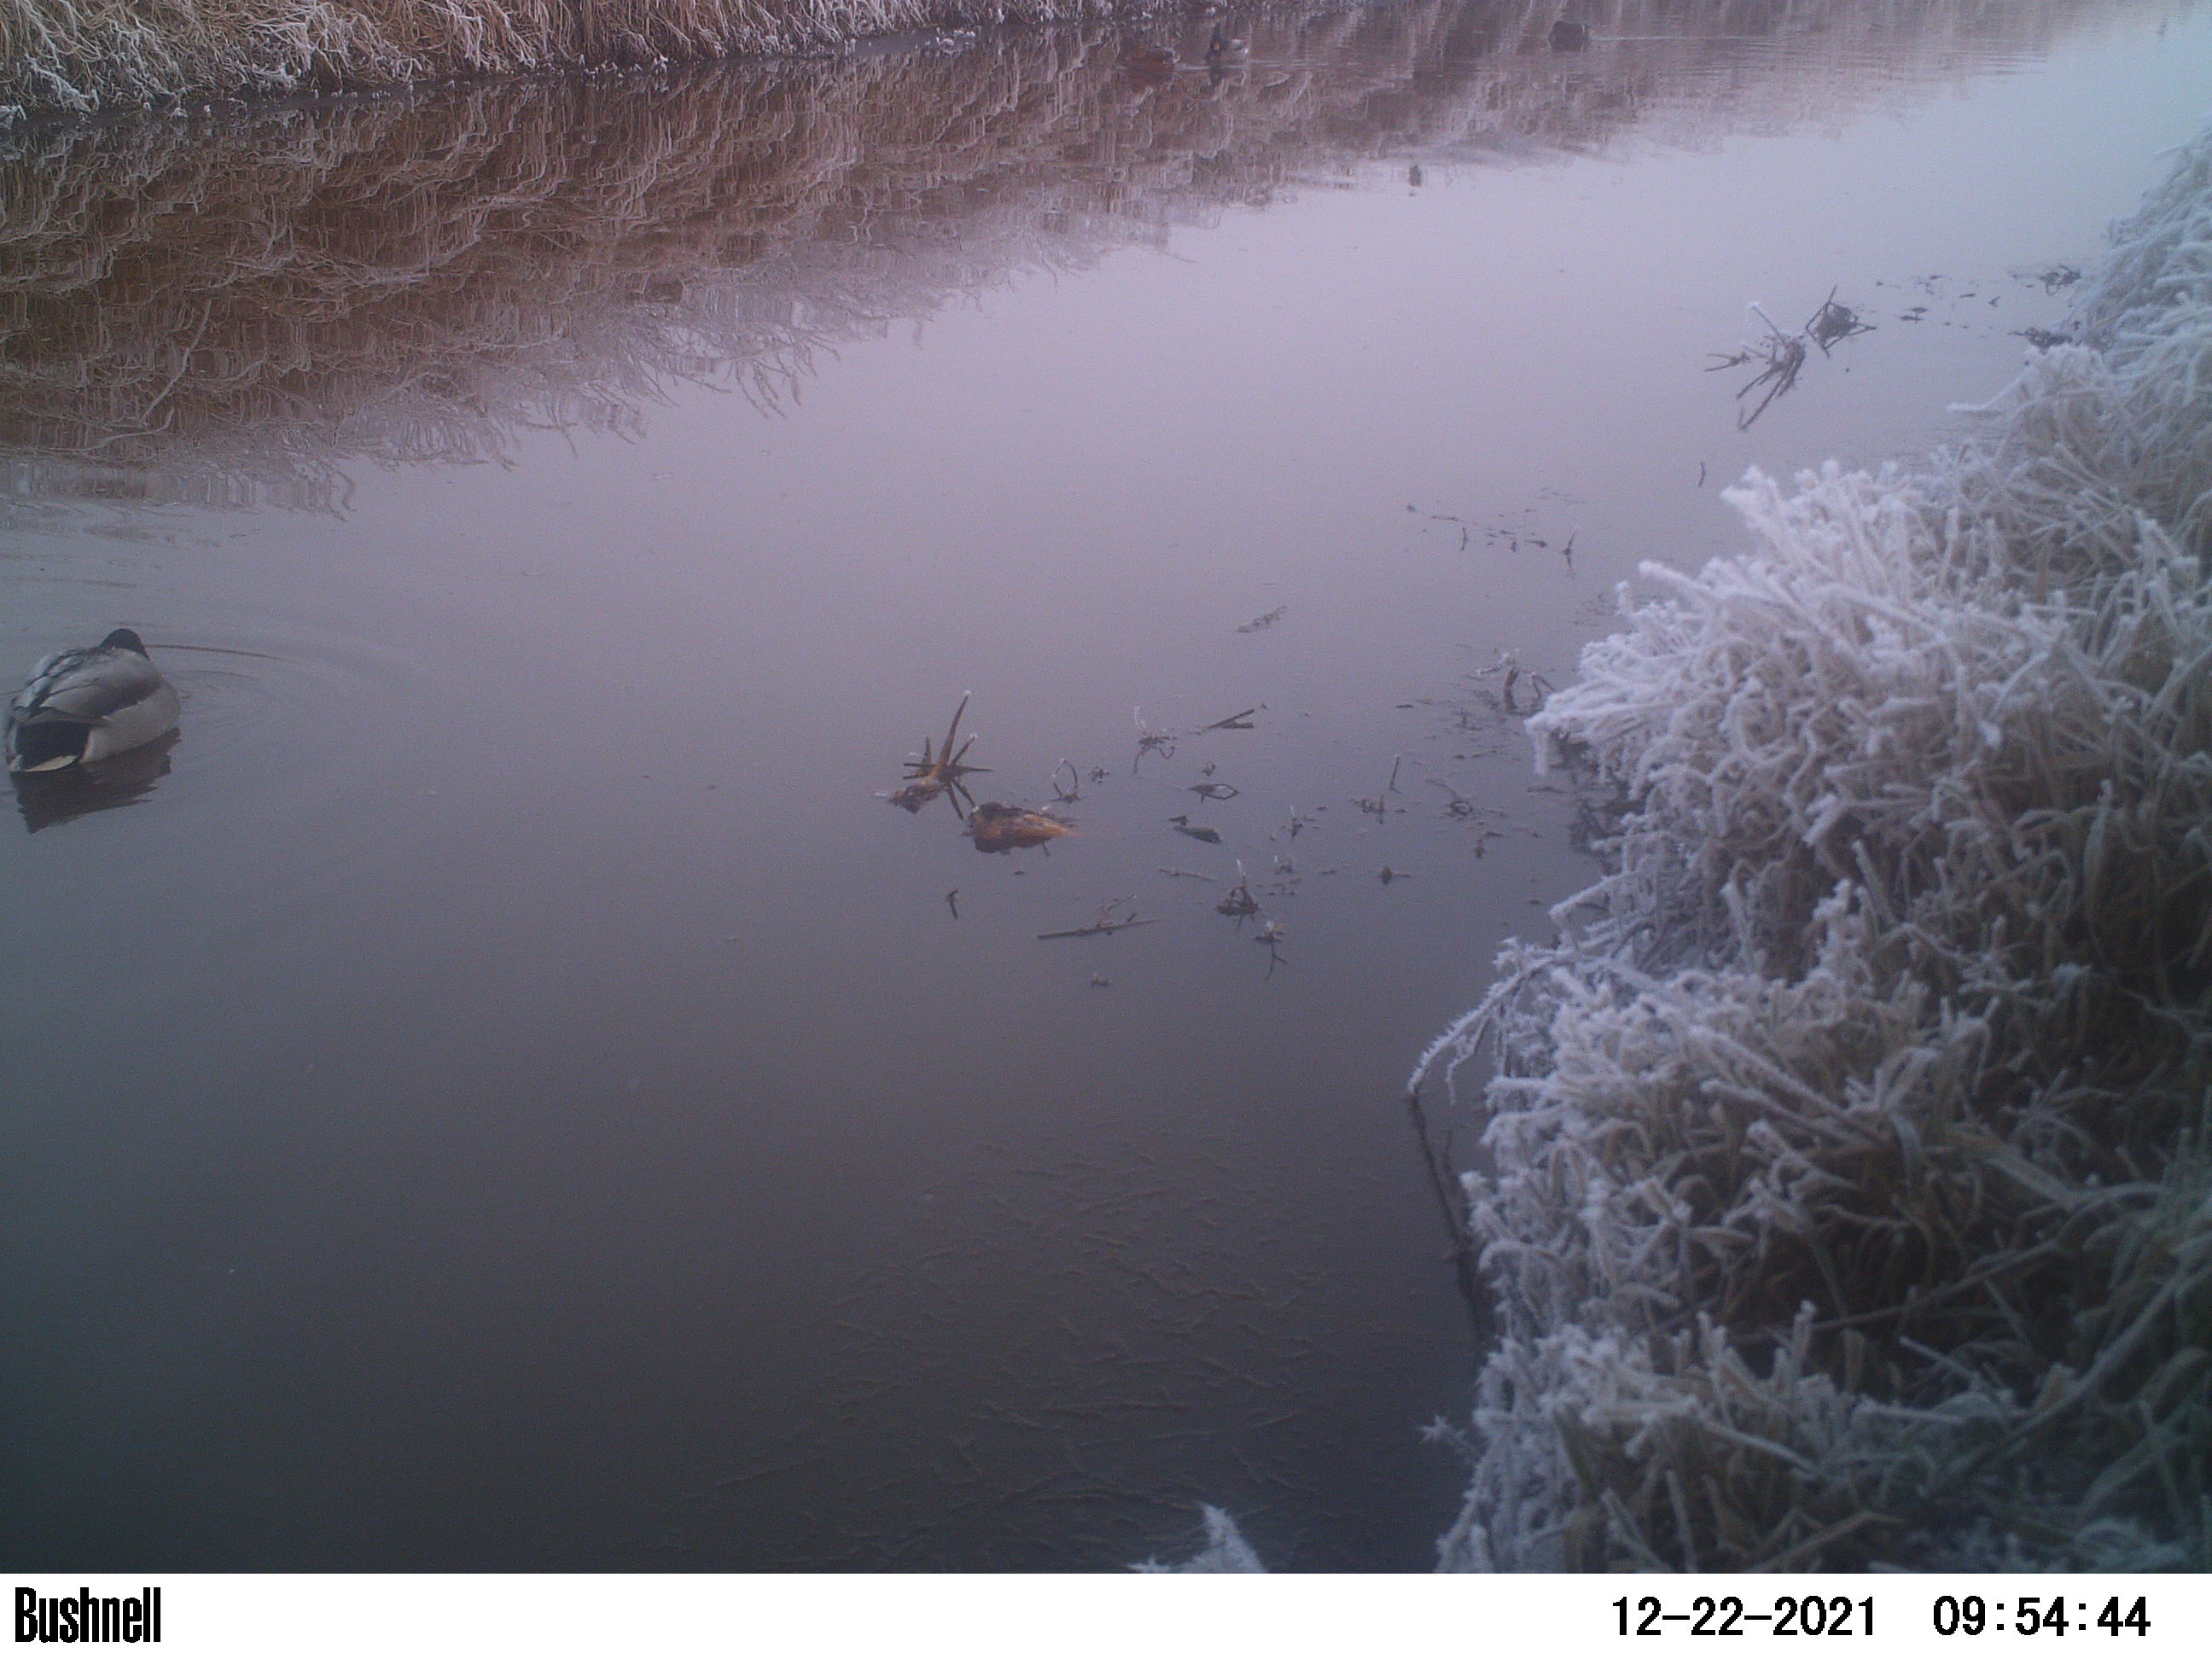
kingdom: Animalia
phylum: Chordata
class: Aves
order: Anseriformes
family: Anatidae
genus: Anas
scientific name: Anas
